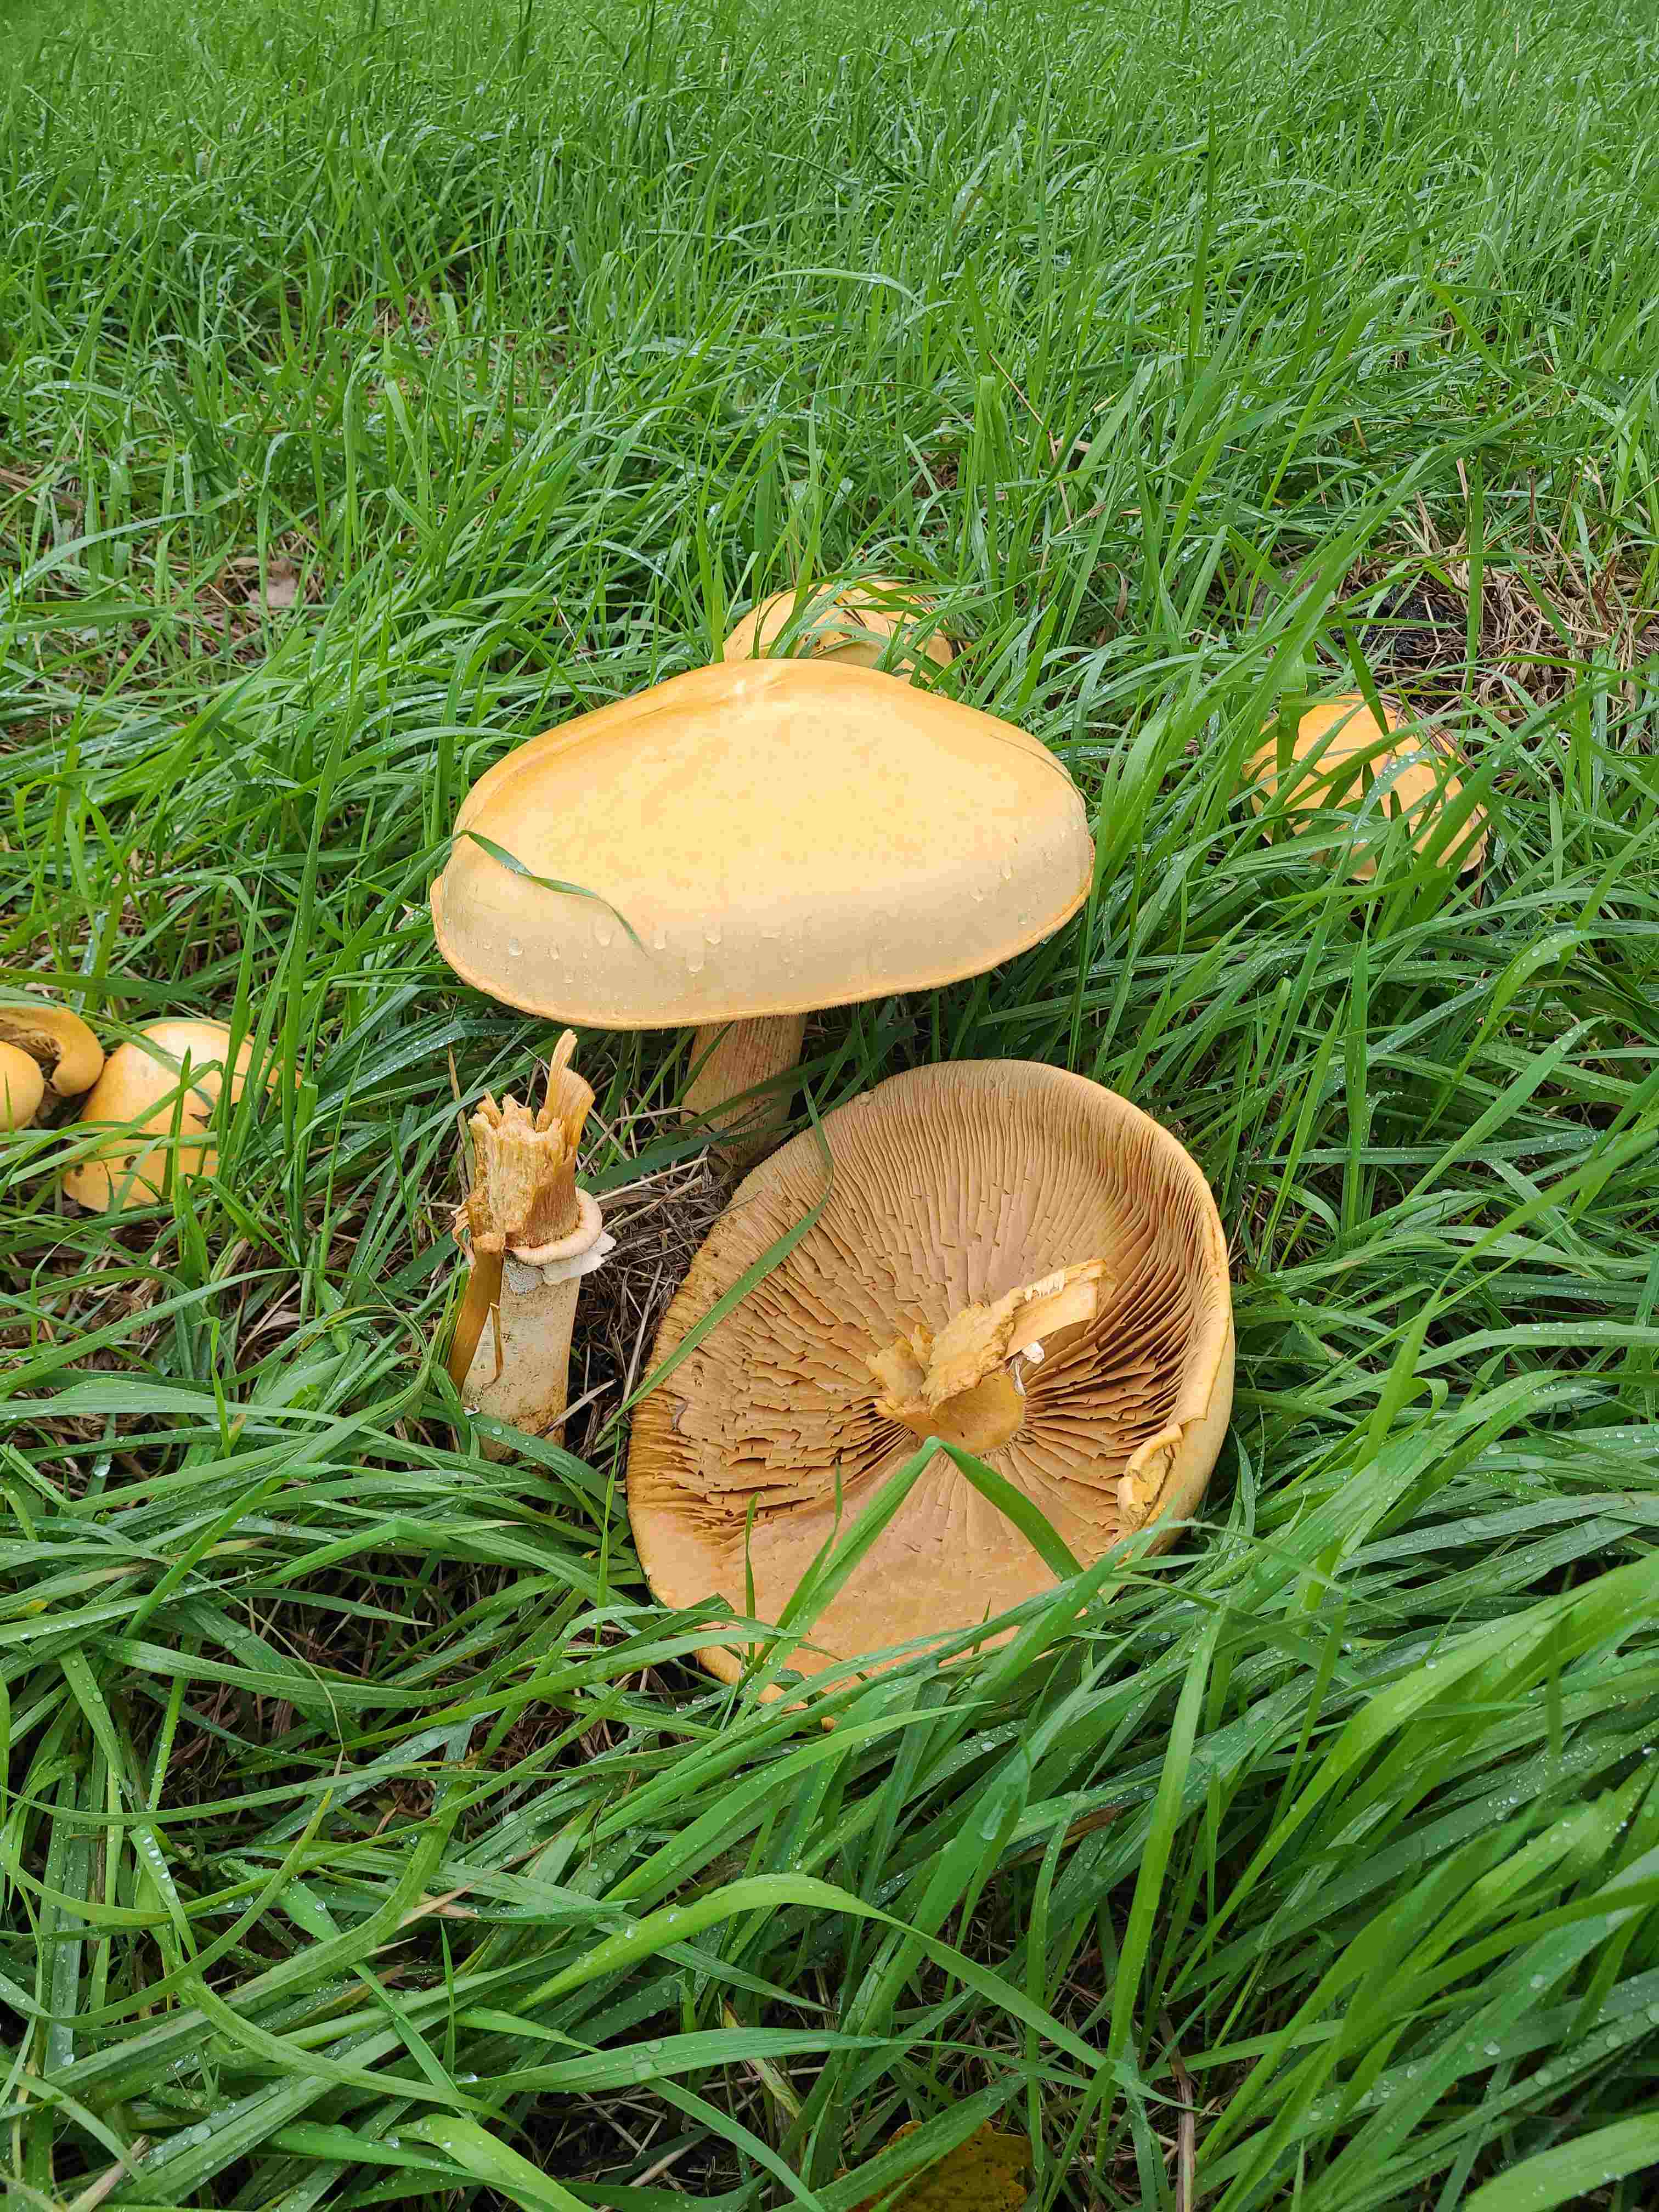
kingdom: Fungi
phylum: Basidiomycota
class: Agaricomycetes
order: Agaricales
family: Tricholomataceae
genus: Phaeolepiota
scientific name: Phaeolepiota aurea
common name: gyldenhat
